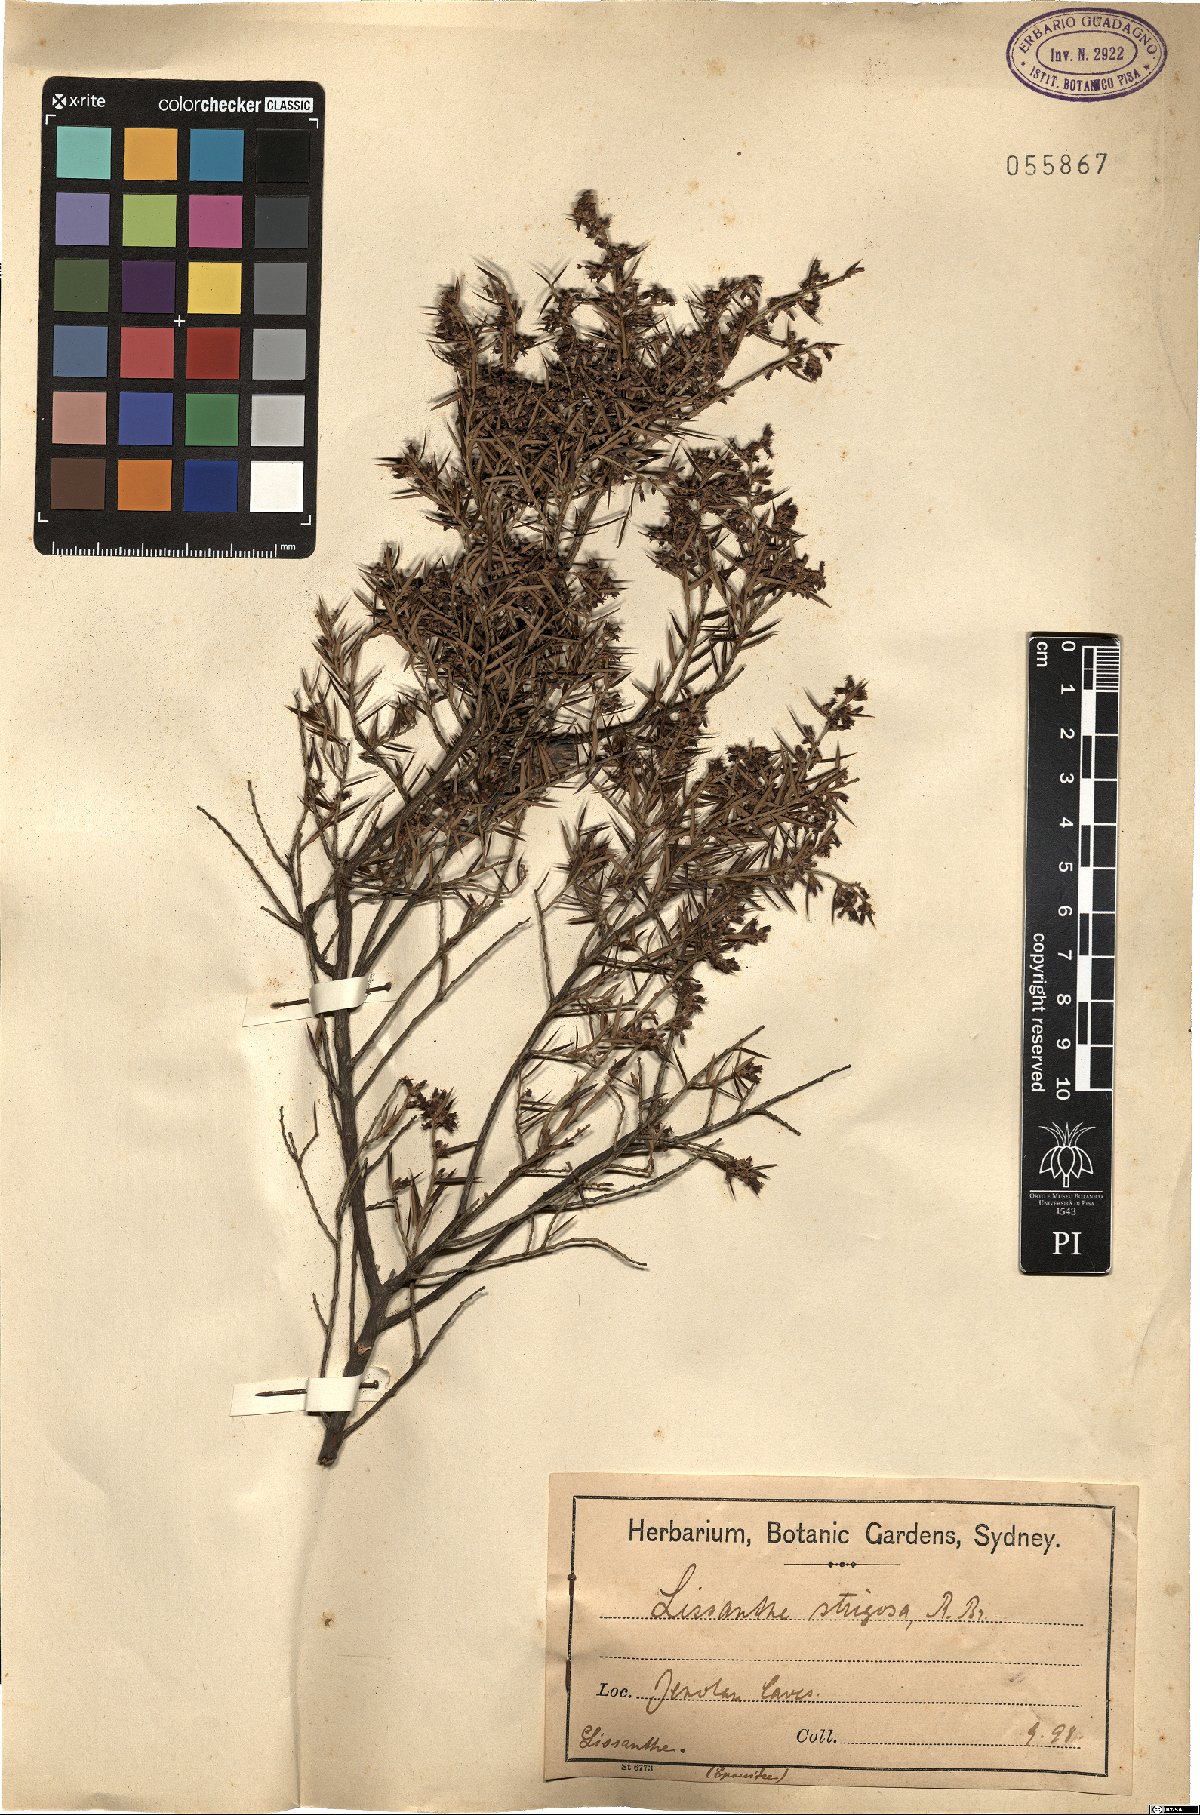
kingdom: Plantae
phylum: Tracheophyta
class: Magnoliopsida
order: Ericales
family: Ericaceae
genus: Lissanthe
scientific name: Lissanthe strigosa
